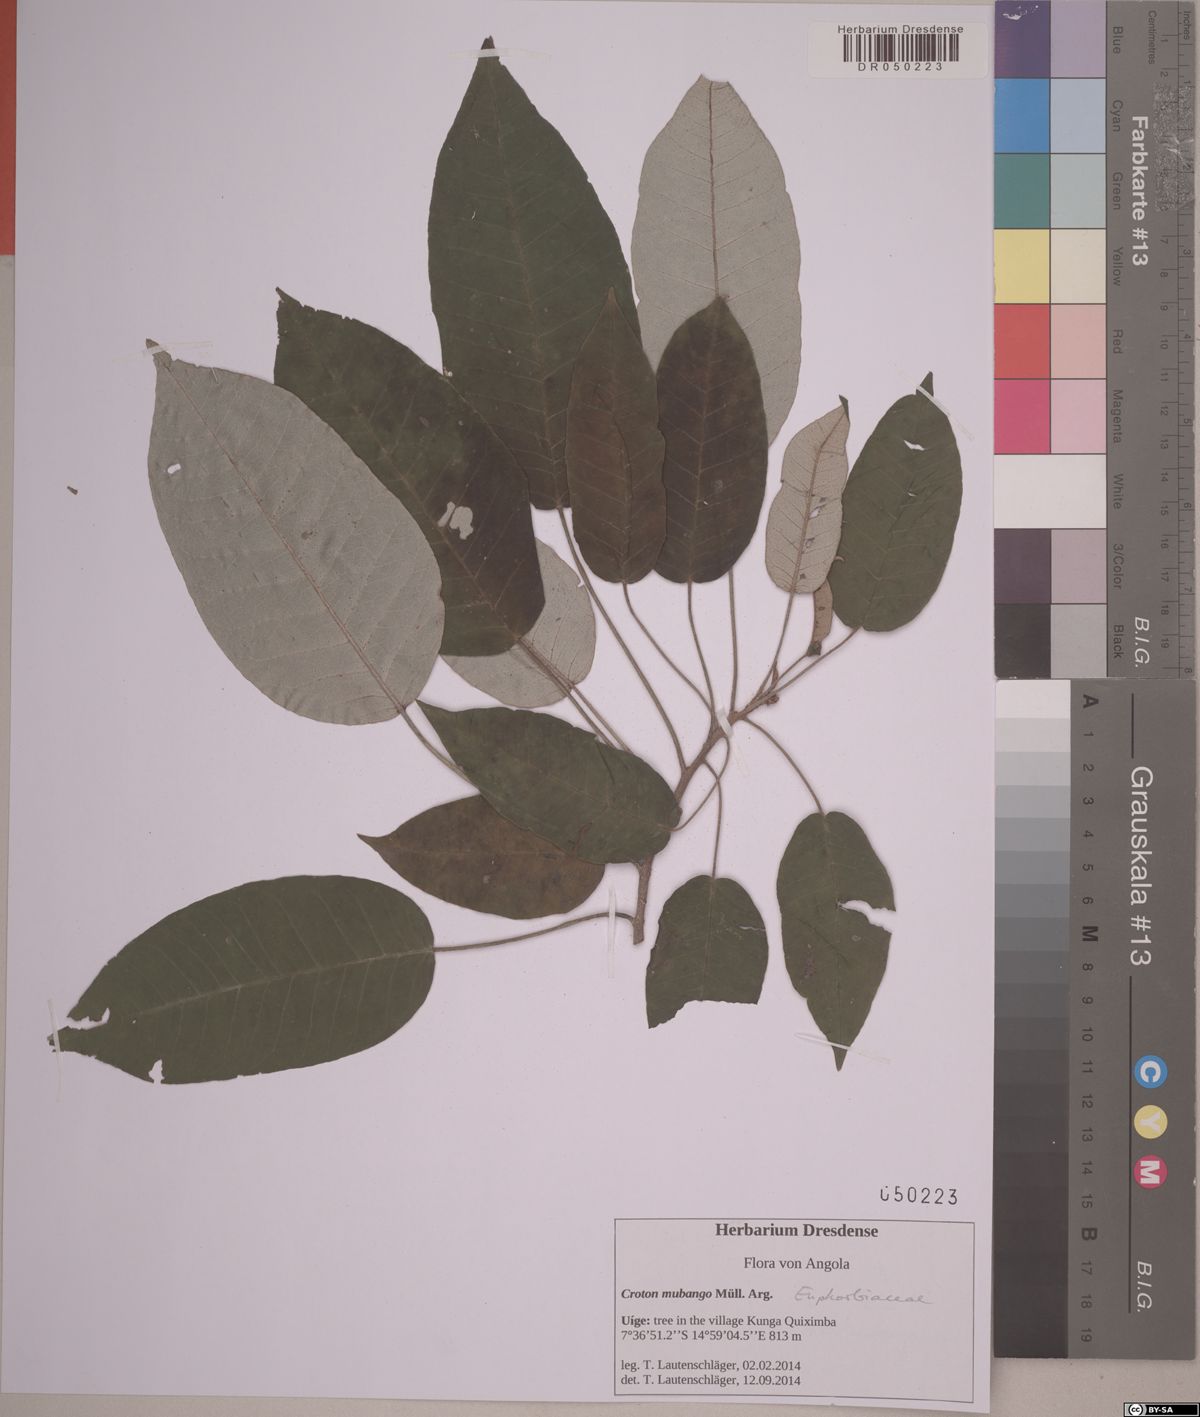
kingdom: Plantae
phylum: Tracheophyta
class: Magnoliopsida
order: Malpighiales
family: Euphorbiaceae
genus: Croton
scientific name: Croton mubango
